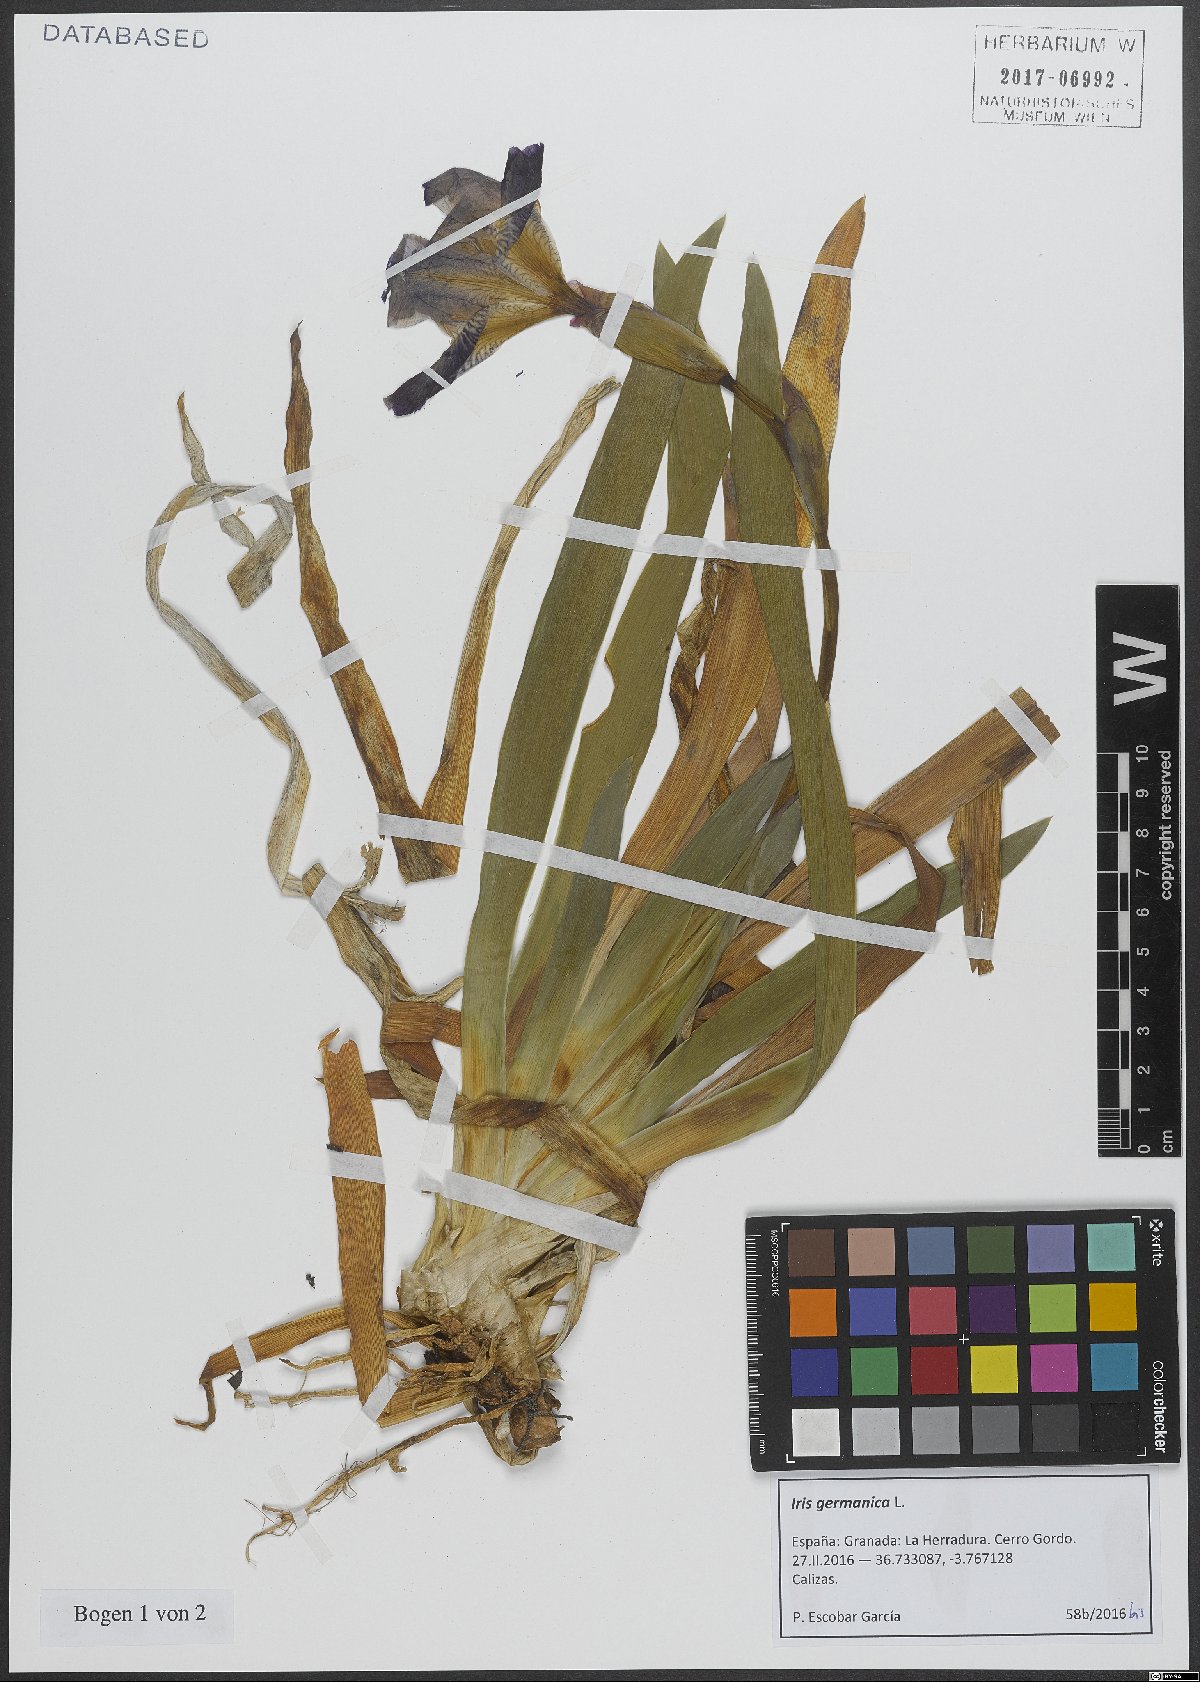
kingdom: Plantae
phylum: Tracheophyta
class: Liliopsida
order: Asparagales
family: Iridaceae
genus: Iris
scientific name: Iris germanica
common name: German iris
